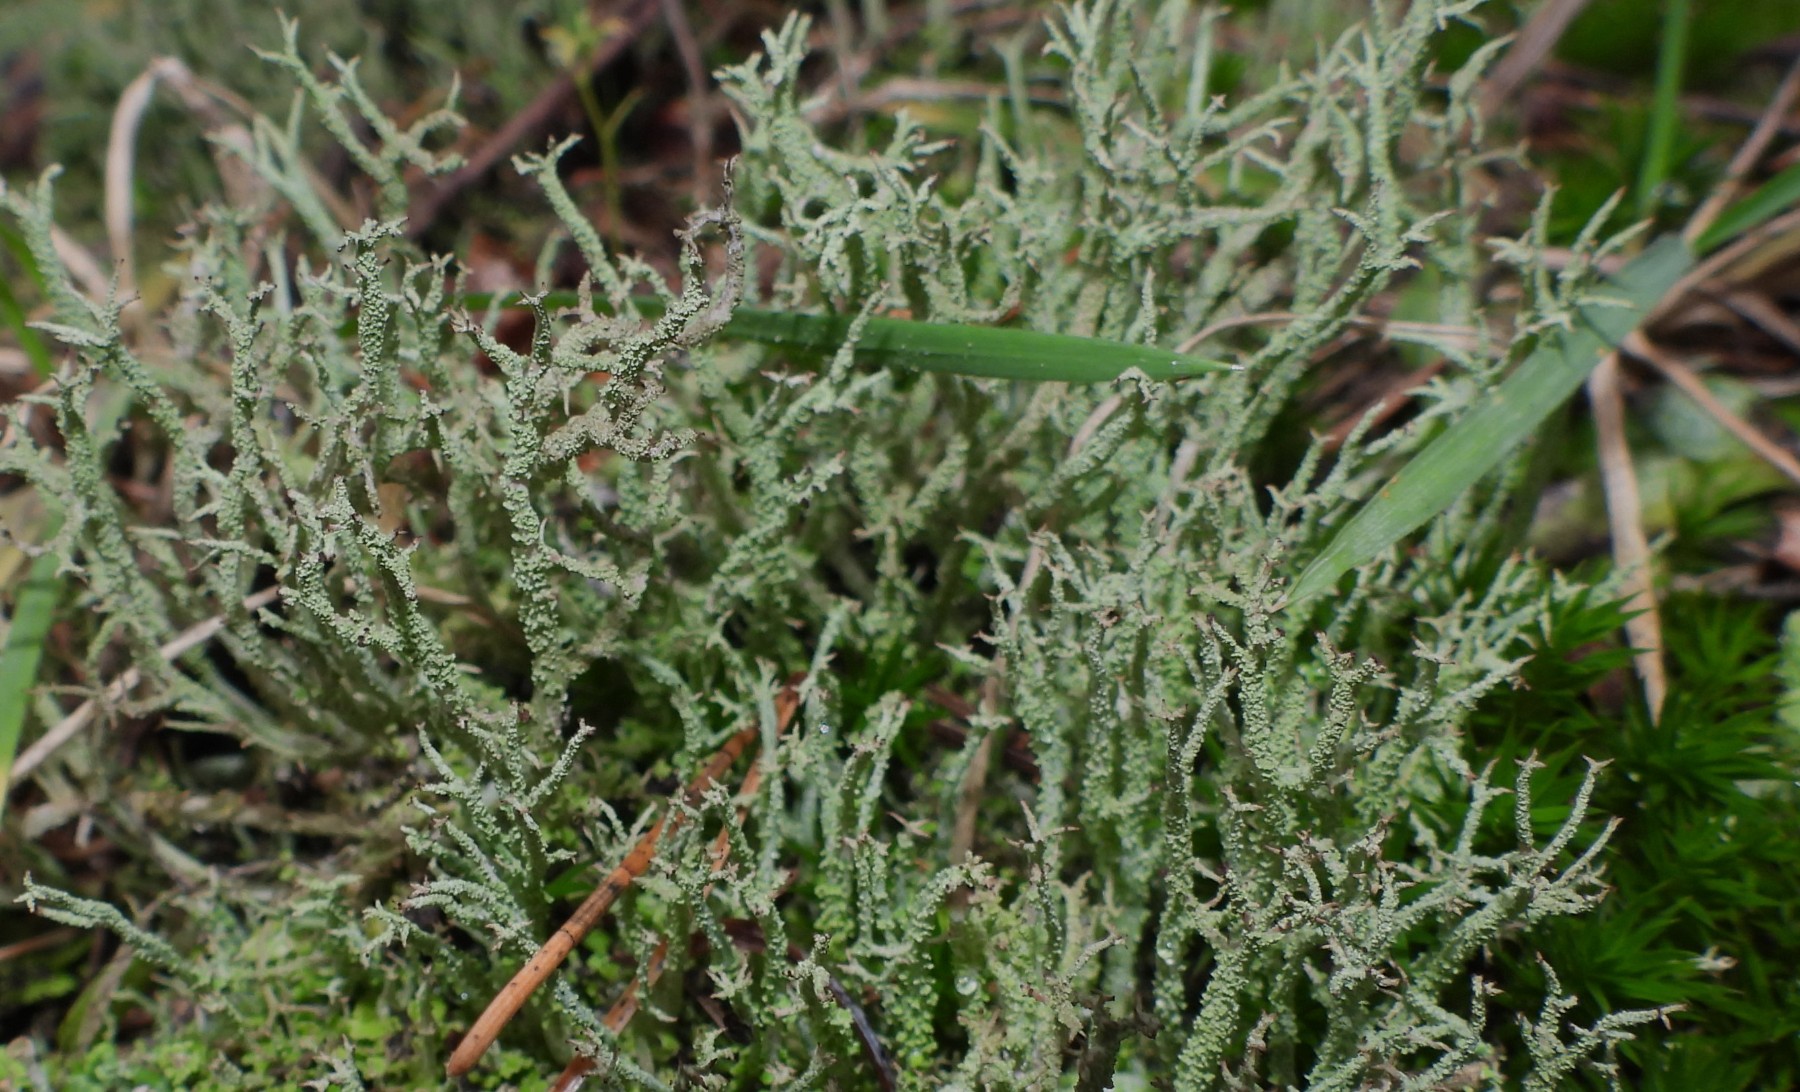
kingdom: Fungi
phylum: Ascomycota
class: Lecanoromycetes
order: Lecanorales
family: Cladoniaceae
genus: Cladonia
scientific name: Cladonia scabriuscula
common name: ru bægerlav
